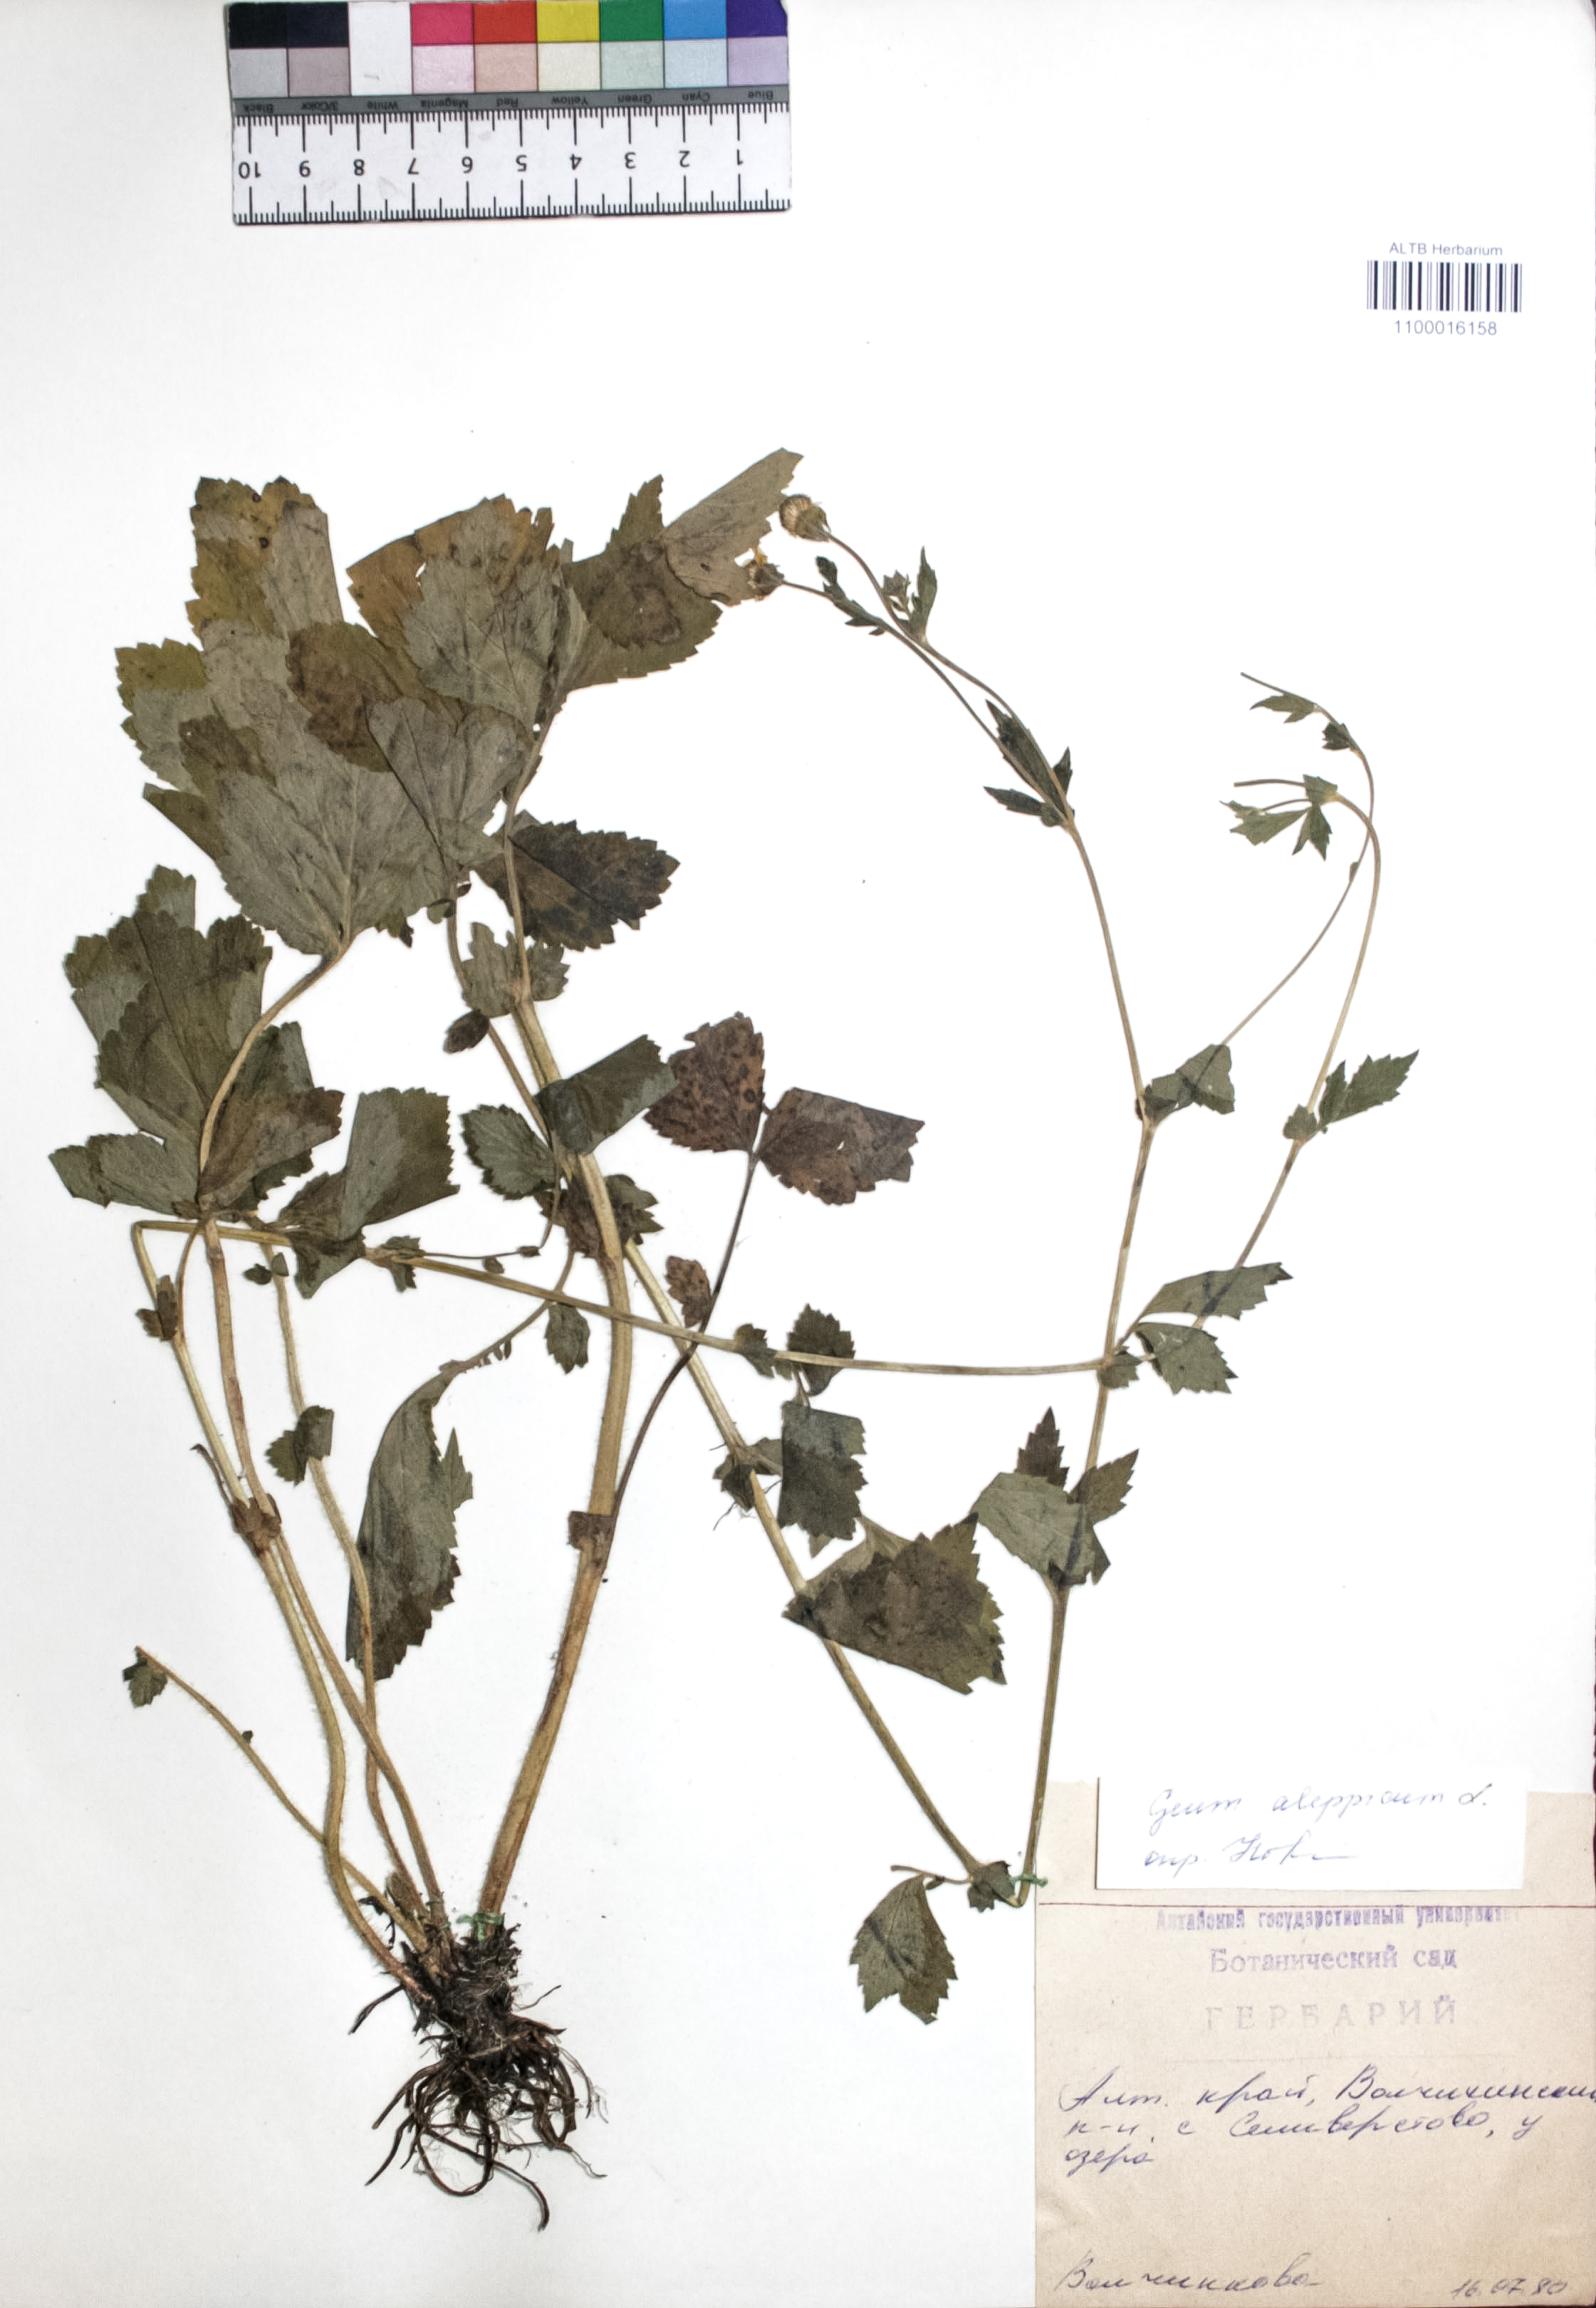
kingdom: Plantae
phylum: Tracheophyta
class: Magnoliopsida
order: Rosales
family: Rosaceae
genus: Geum
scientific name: Geum aleppicum
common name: Yellow avens
